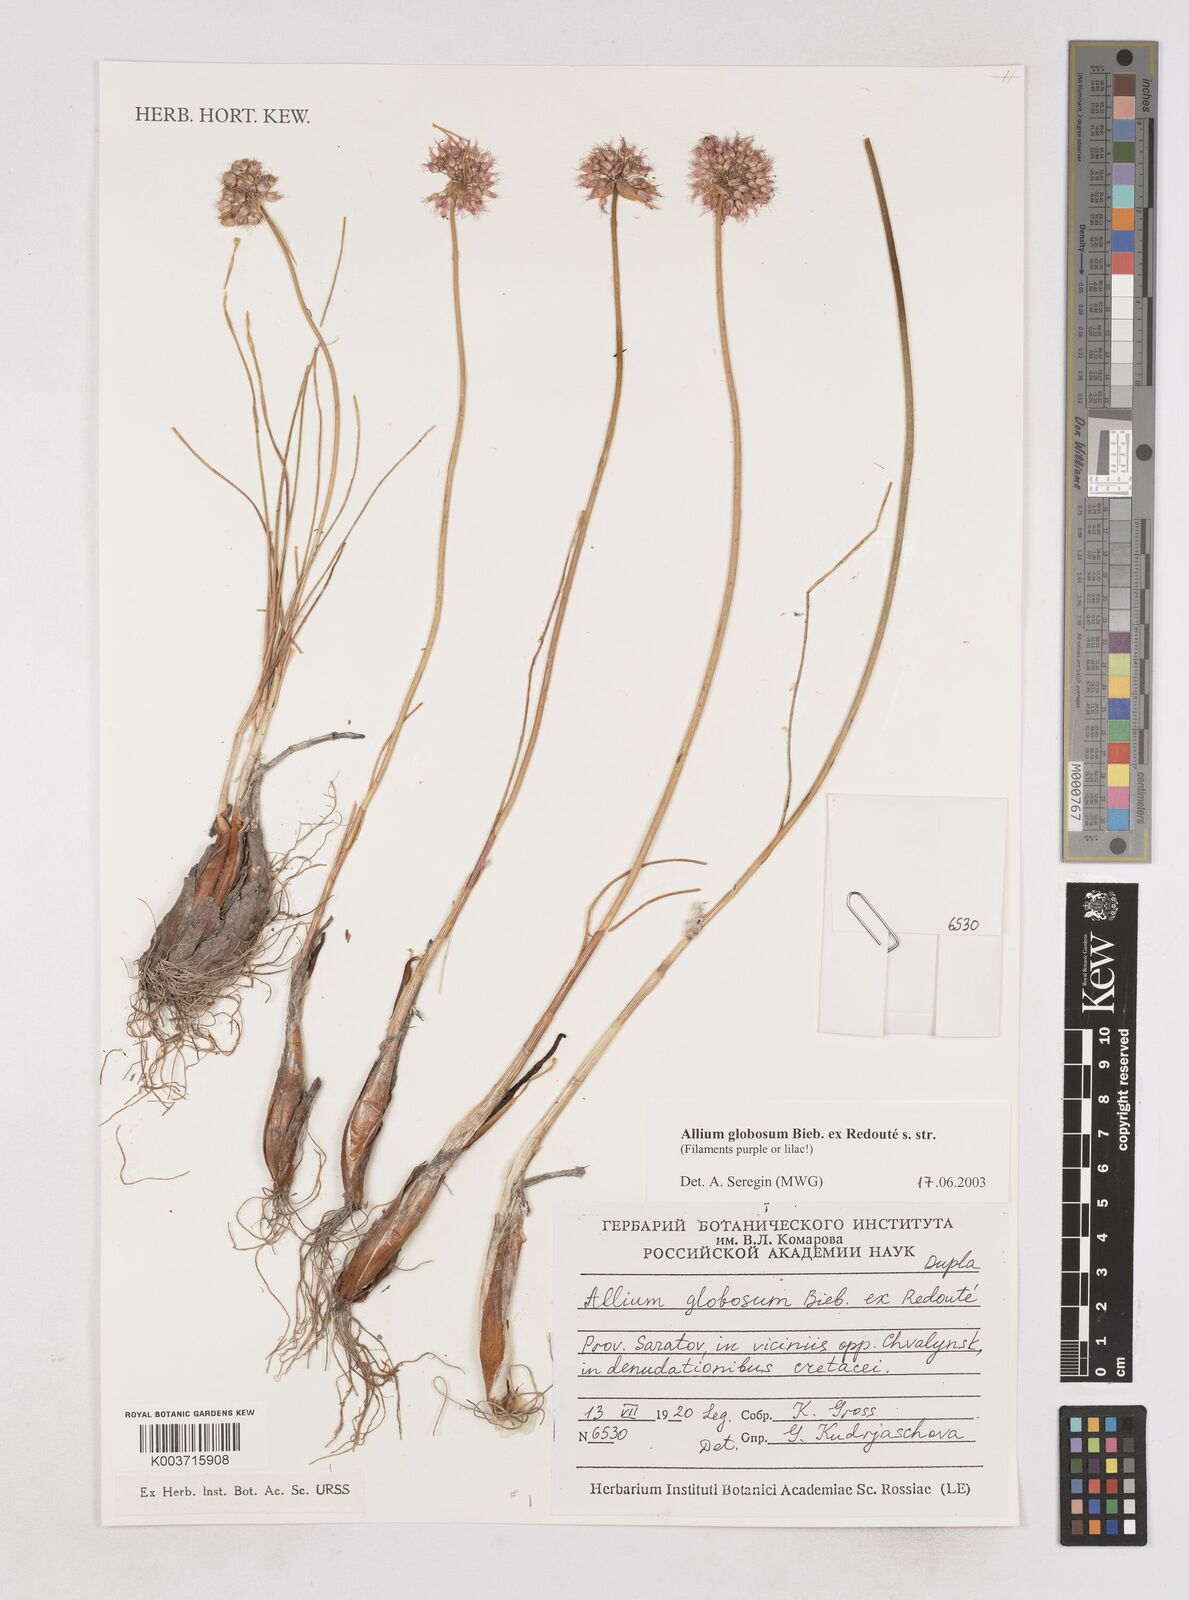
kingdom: Plantae
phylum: Tracheophyta
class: Liliopsida
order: Asparagales
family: Amaryllidaceae
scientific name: Amaryllidaceae
